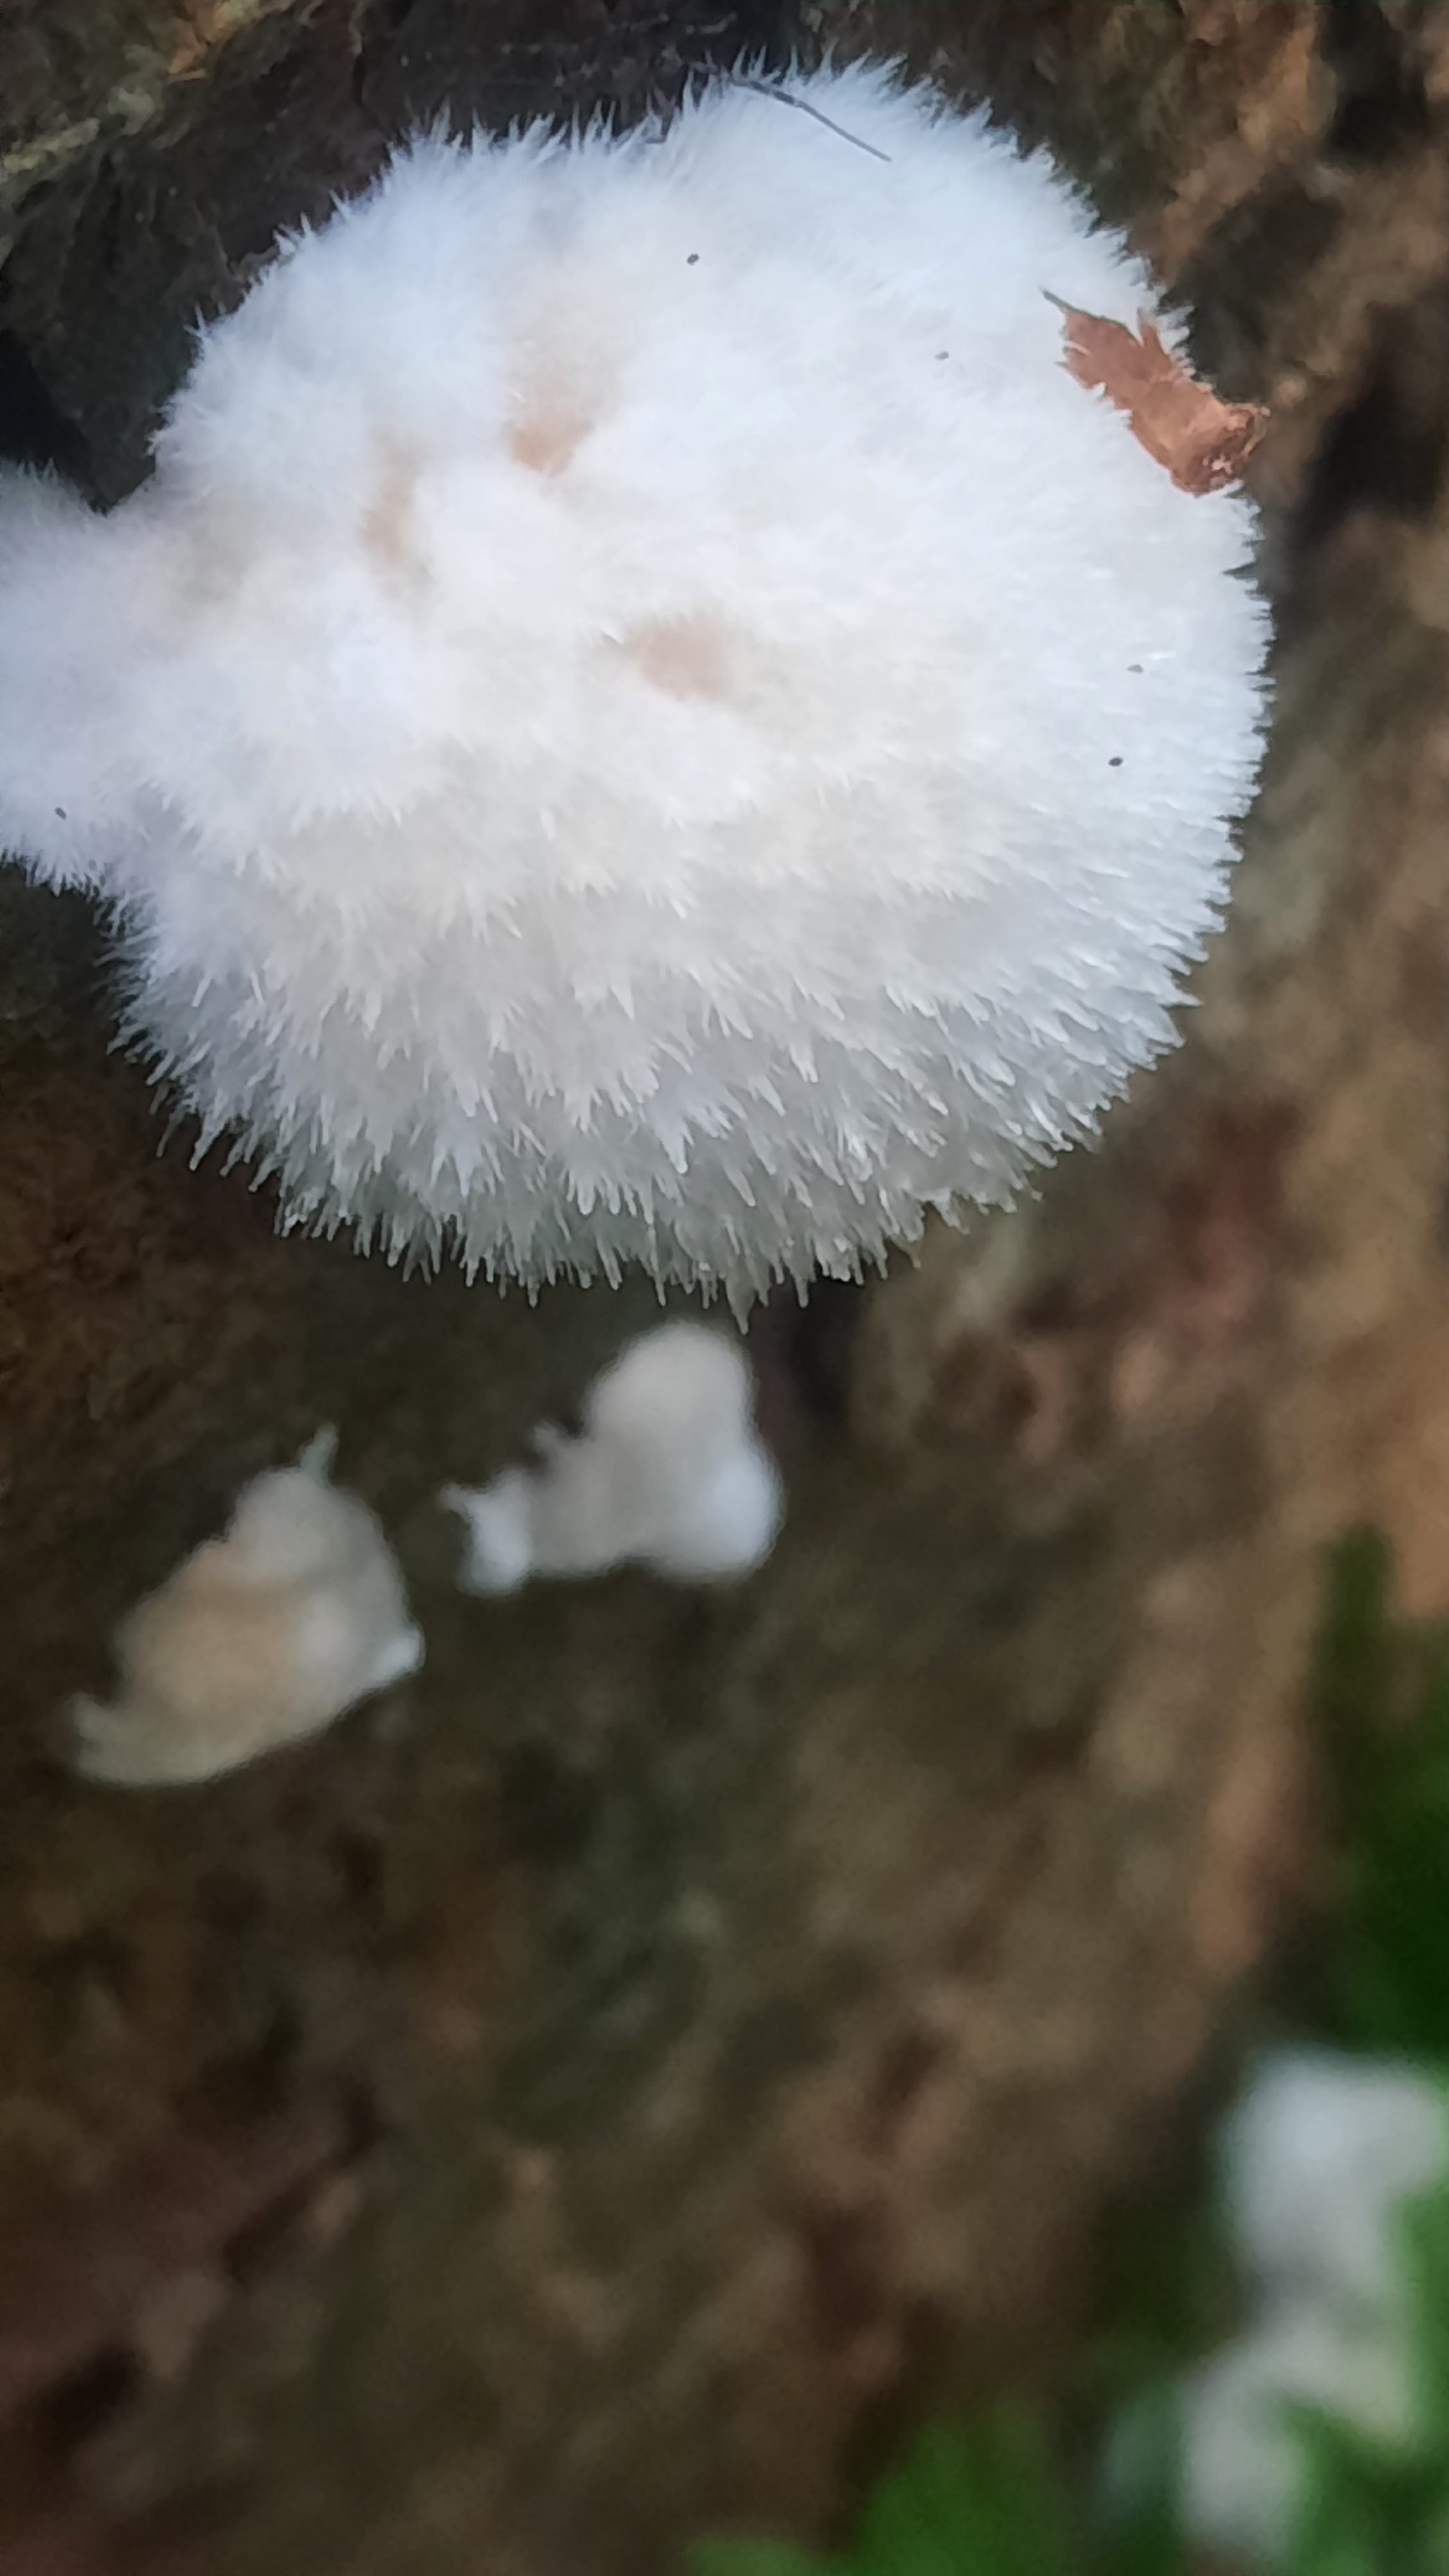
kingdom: Fungi
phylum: Basidiomycota
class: Agaricomycetes
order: Polyporales
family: Dacryobolaceae
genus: Postia
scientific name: Postia ptychogaster
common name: støvende kødporesvamp
